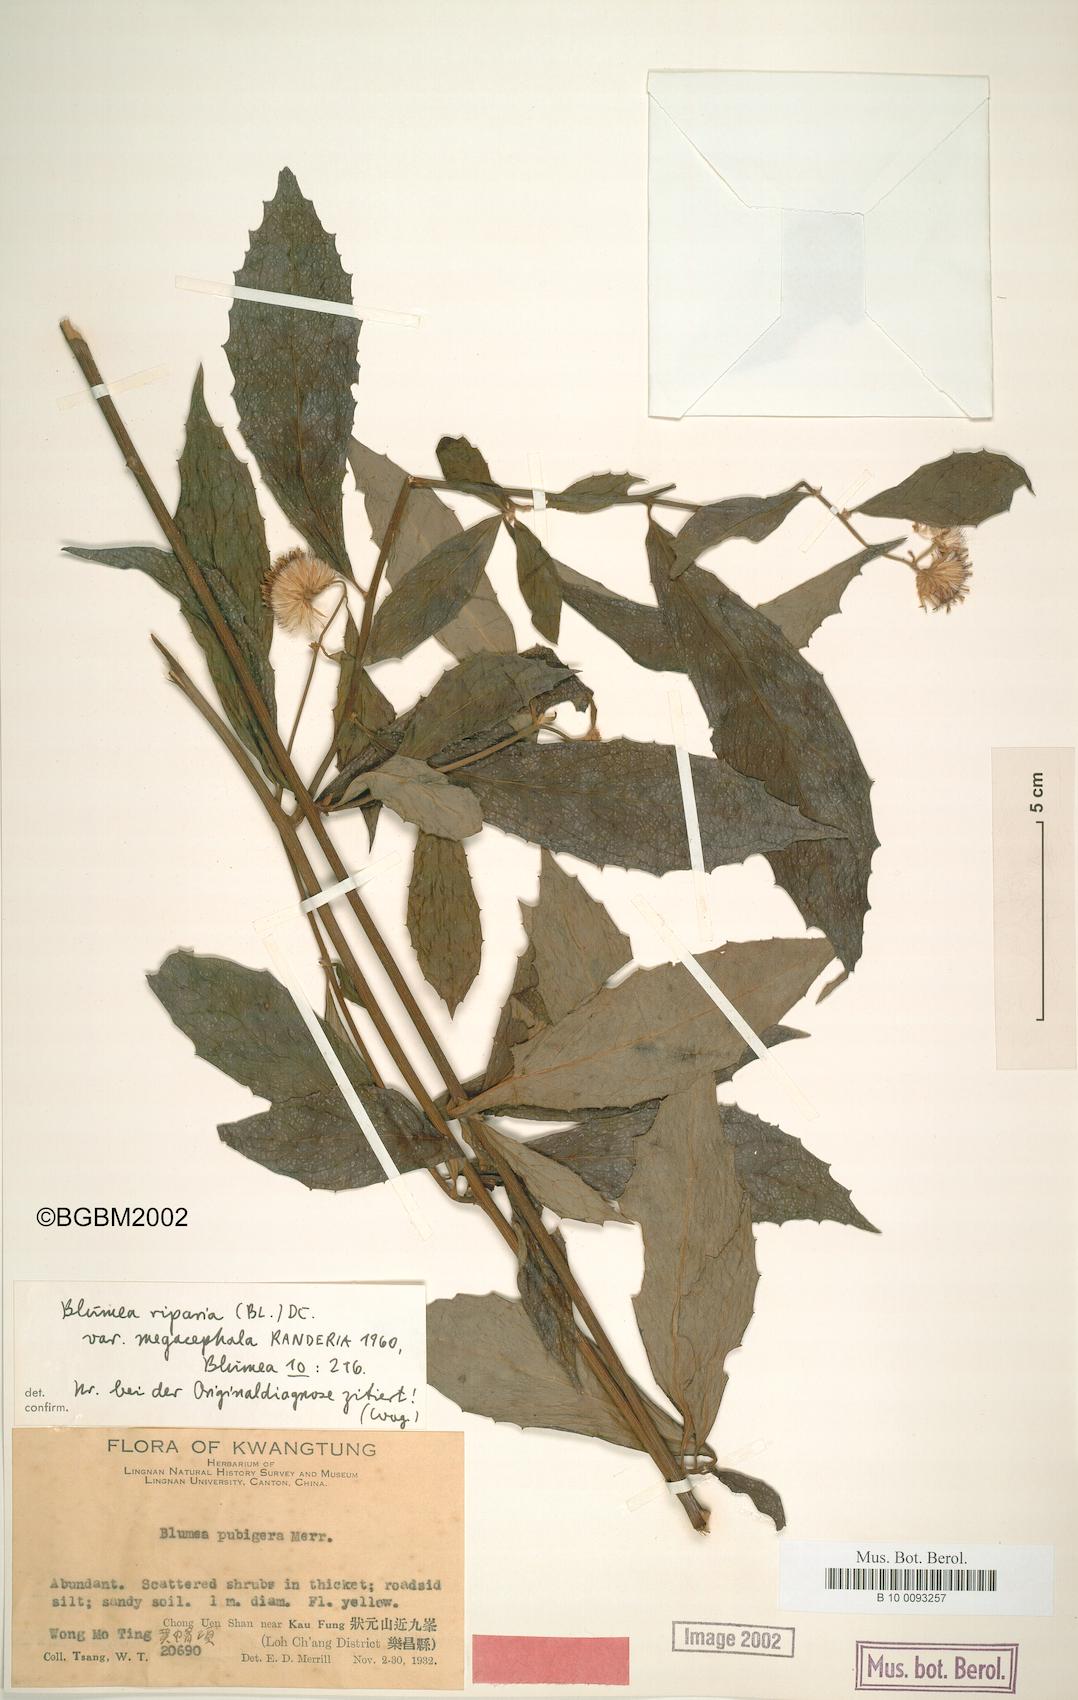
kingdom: Plantae
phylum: Tracheophyta
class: Magnoliopsida
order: Asterales
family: Asteraceae
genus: Blumea
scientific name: Blumea megacephala
